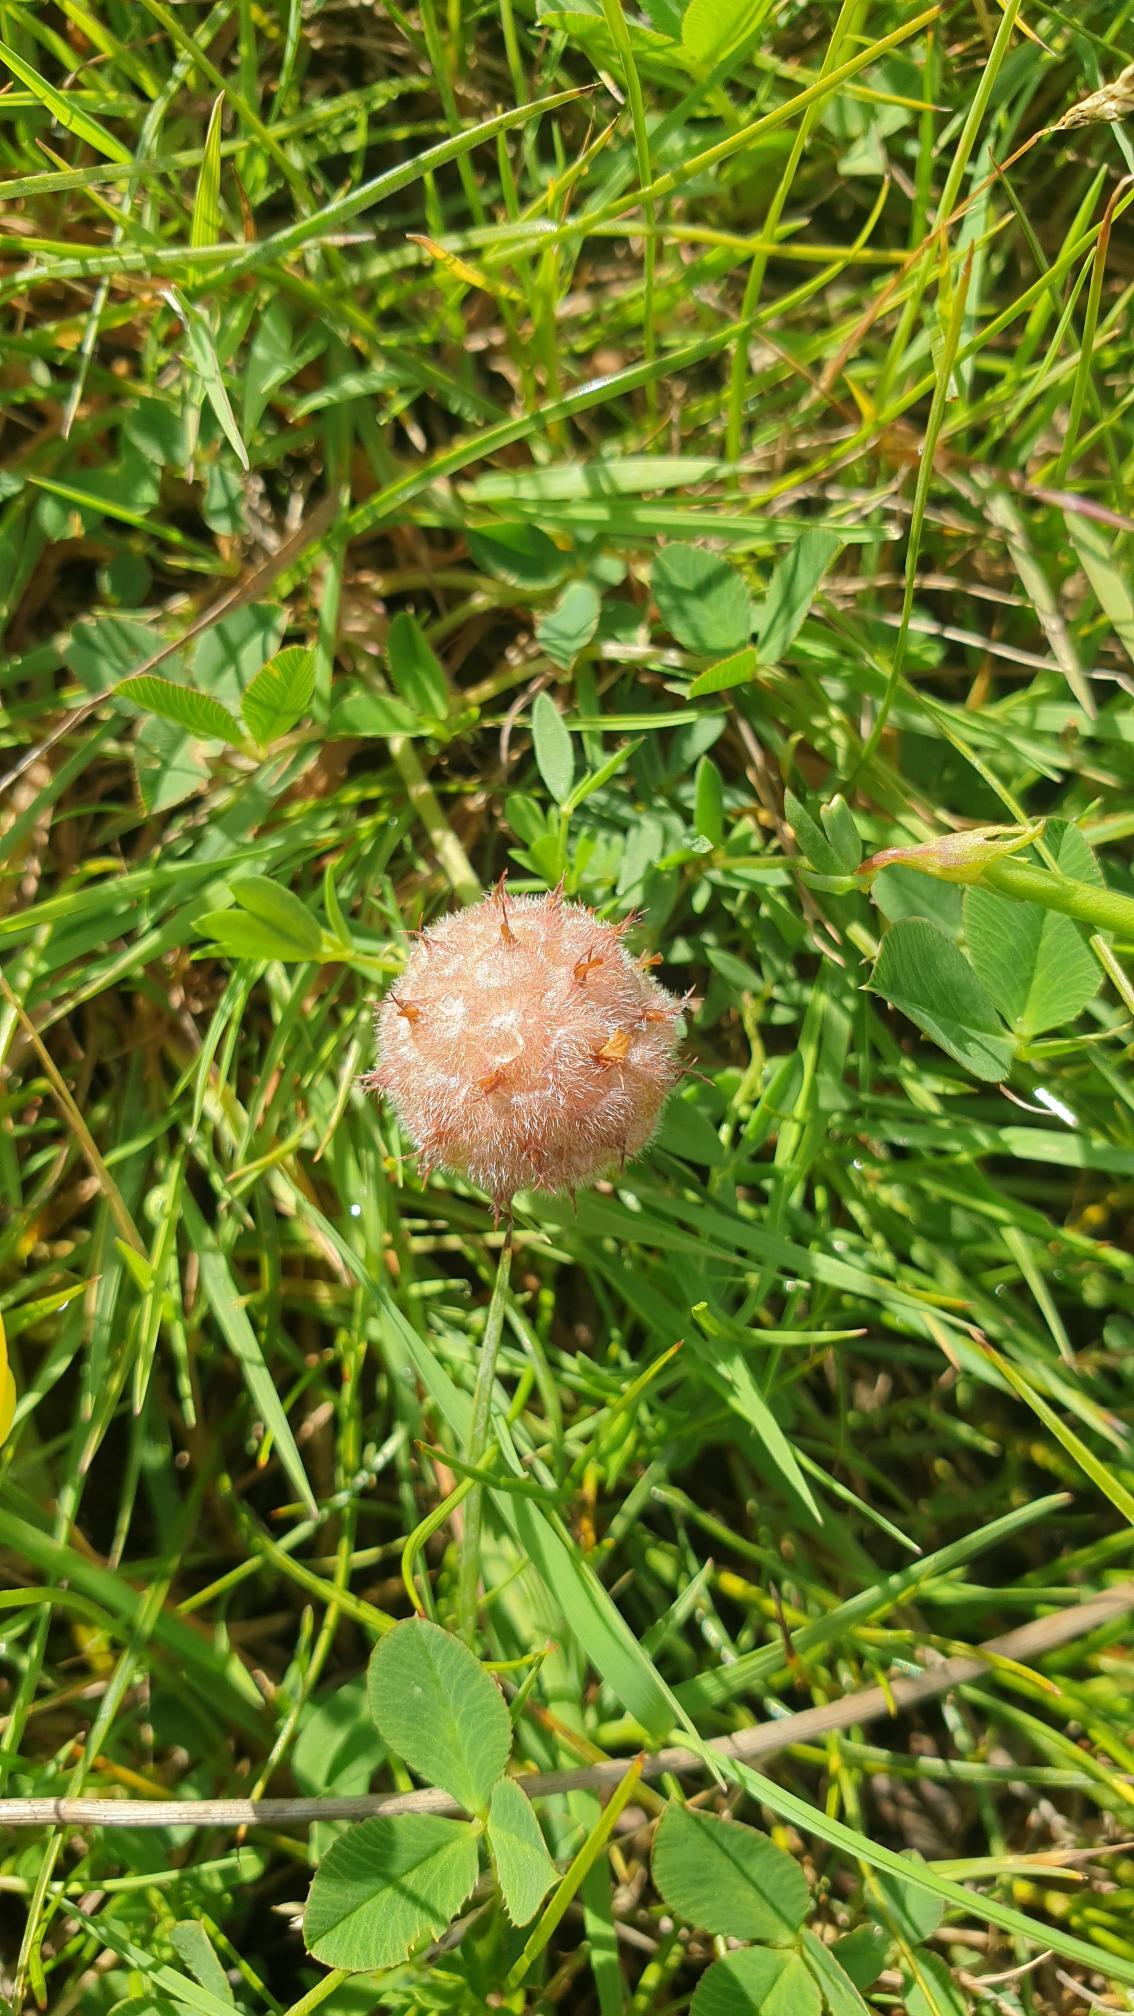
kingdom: Plantae
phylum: Tracheophyta
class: Magnoliopsida
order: Fabales
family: Fabaceae
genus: Trifolium
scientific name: Trifolium fragiferum
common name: Jordbær-kløver
